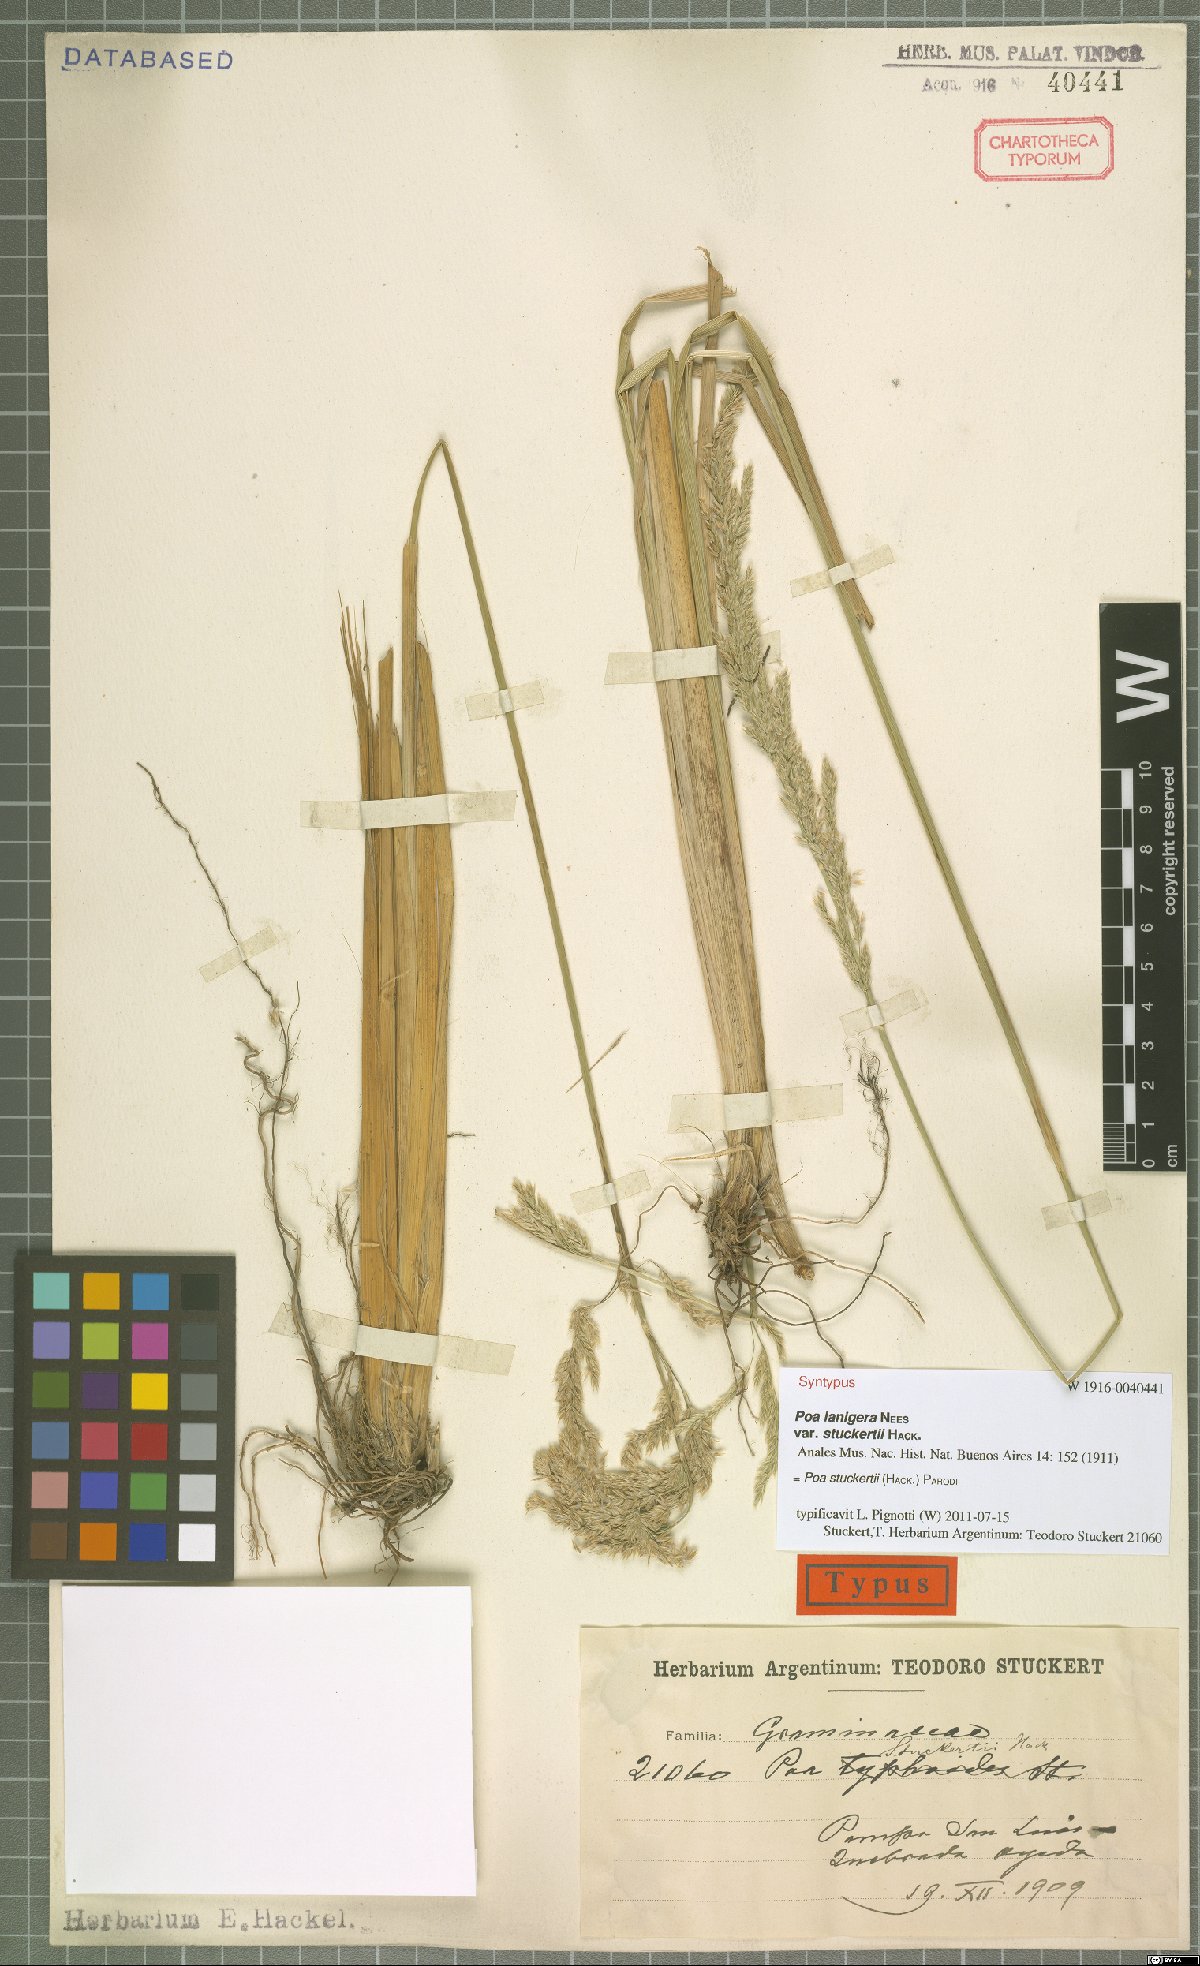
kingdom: Plantae
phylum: Tracheophyta
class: Liliopsida
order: Poales
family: Poaceae
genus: Poa
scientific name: Poa stuckertii
